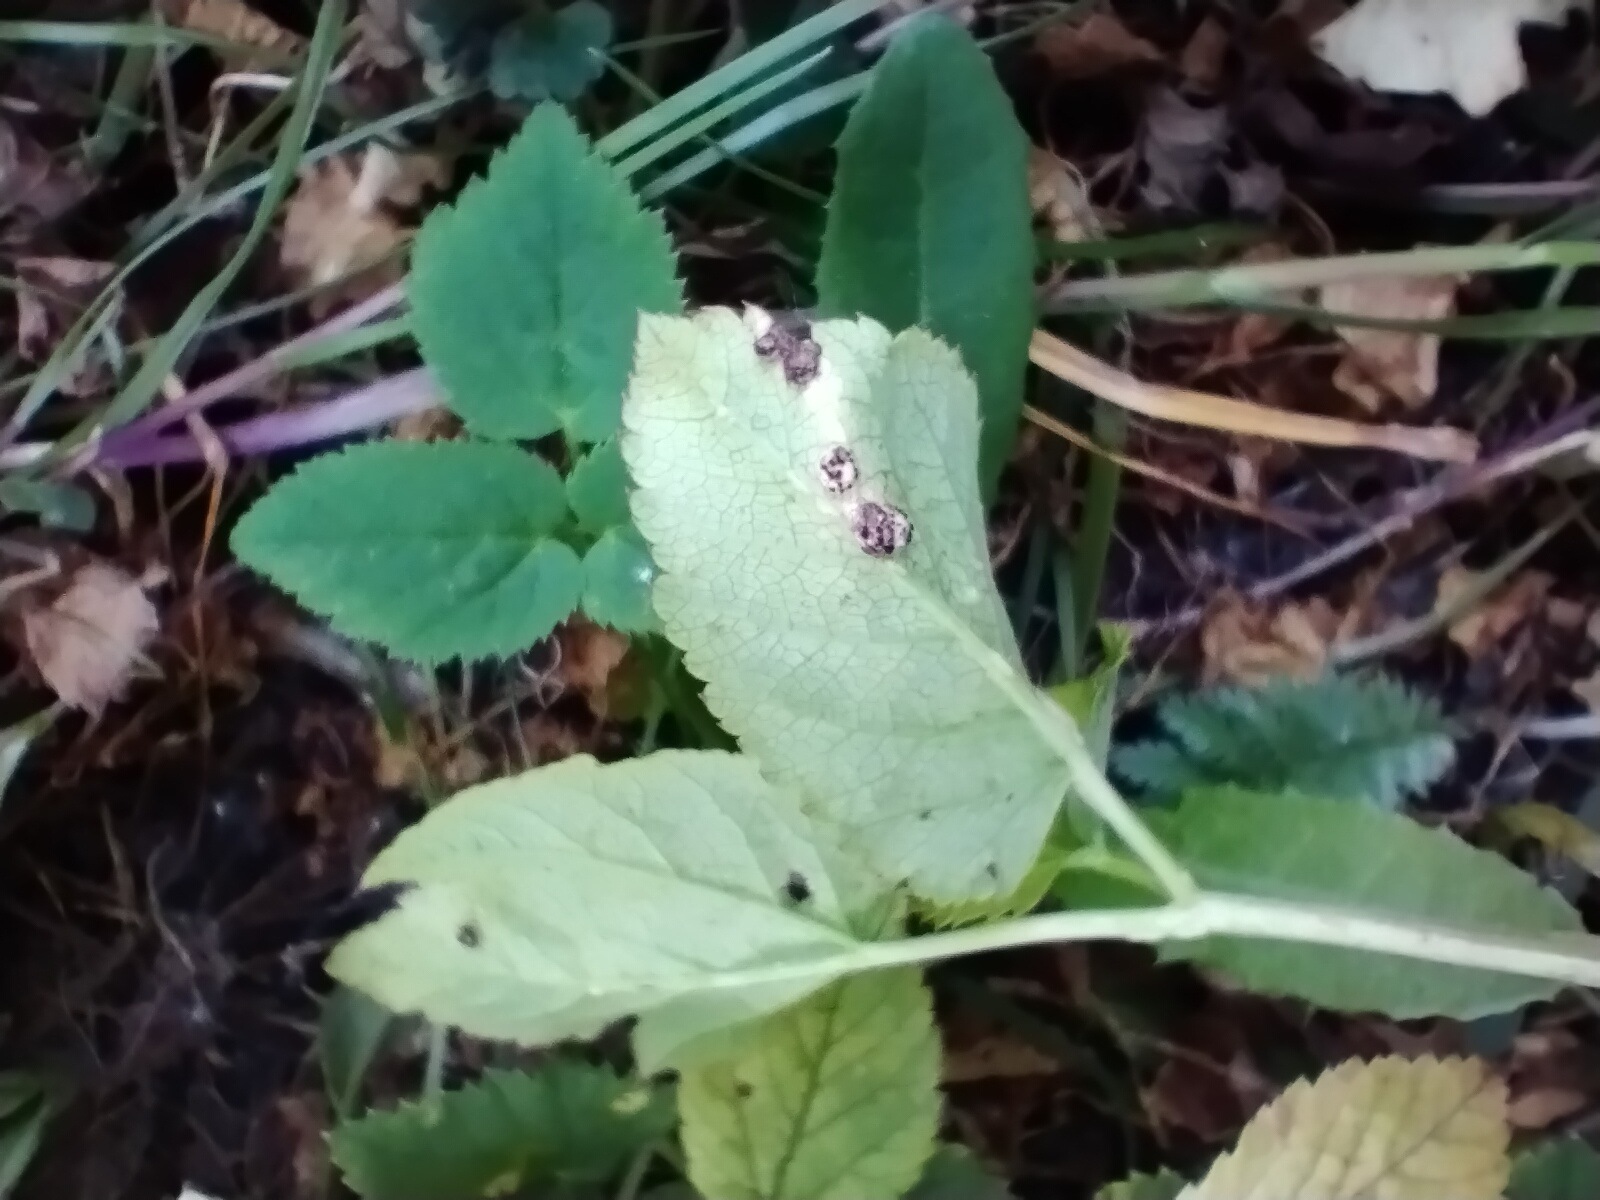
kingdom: Fungi
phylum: Basidiomycota
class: Pucciniomycetes
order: Pucciniales
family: Pucciniaceae
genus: Puccinia
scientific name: Puccinia
